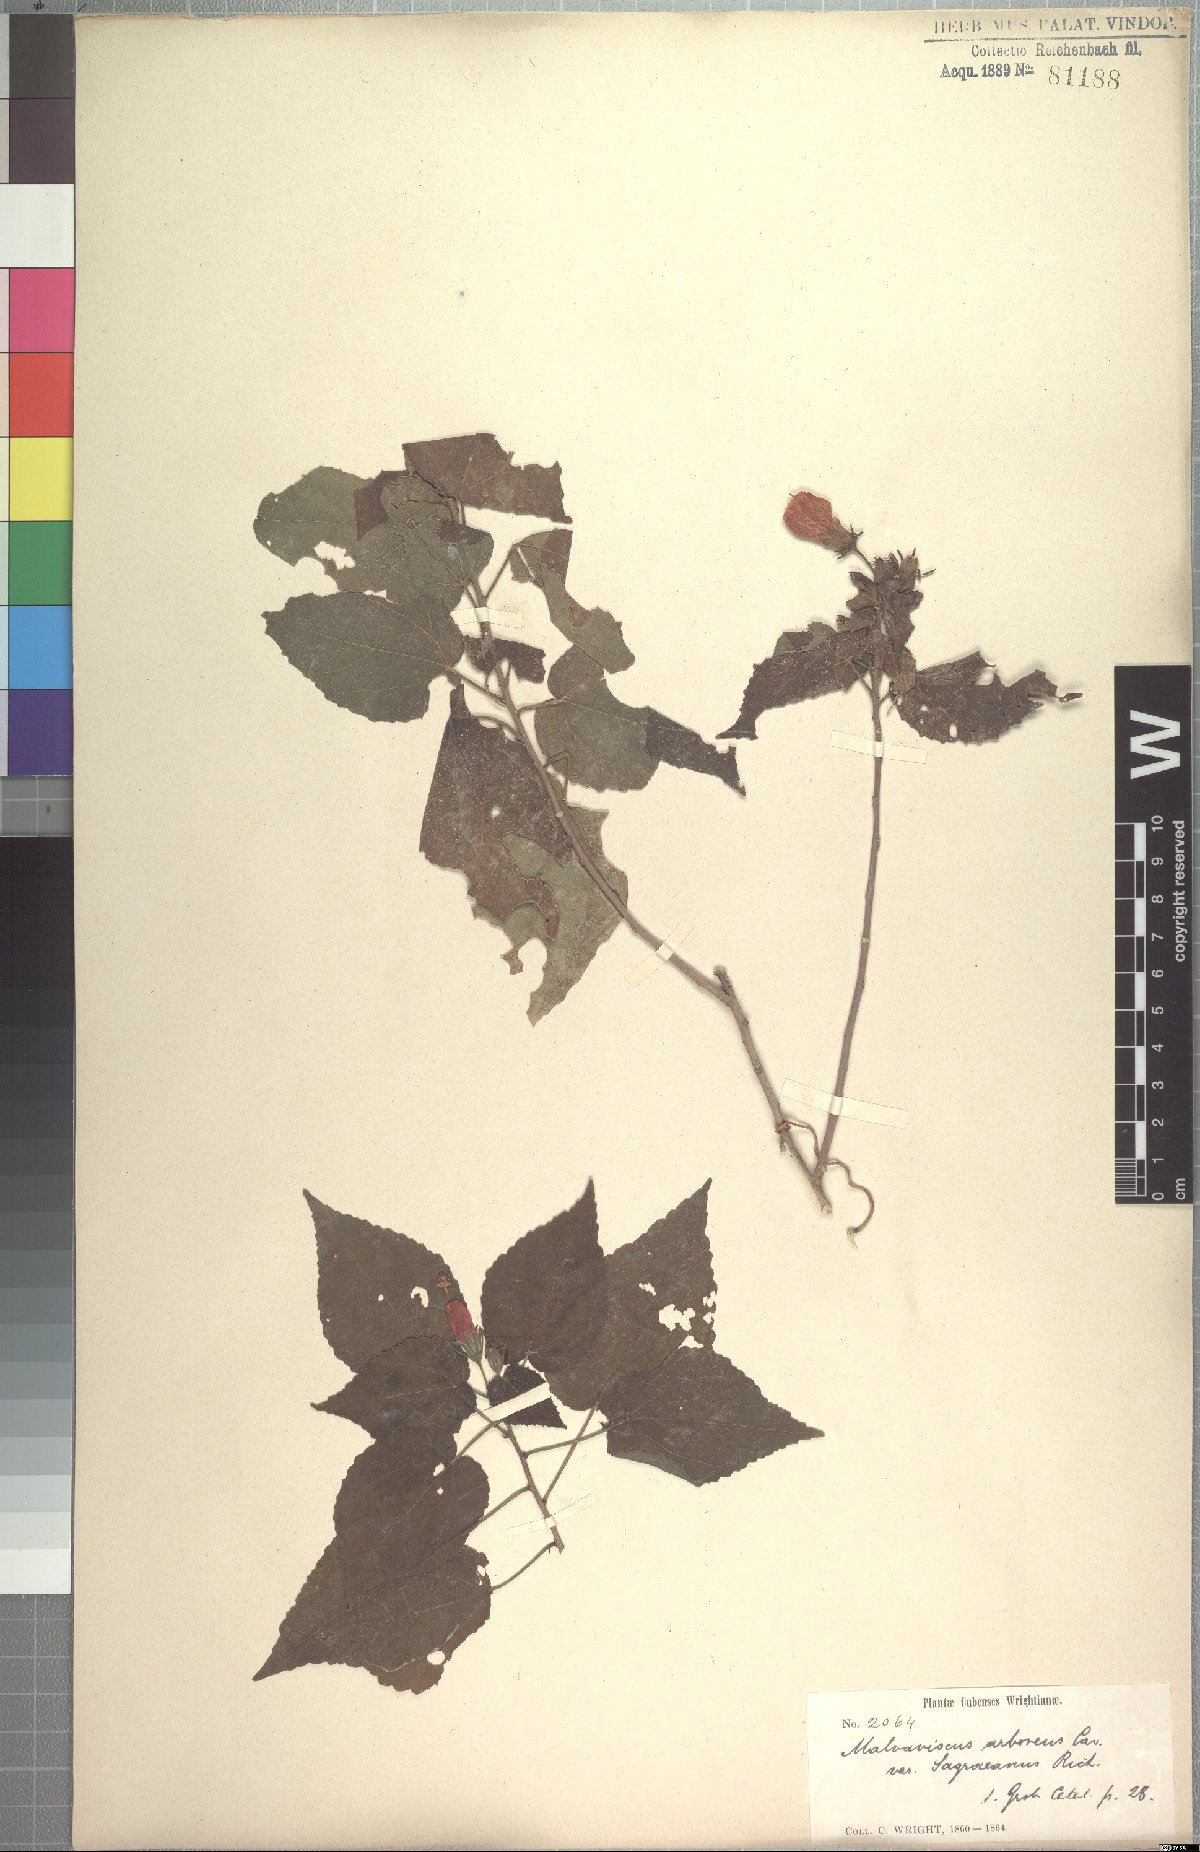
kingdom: Plantae
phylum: Tracheophyta
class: Magnoliopsida
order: Malvales
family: Malvaceae
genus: Malvaviscus
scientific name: Malvaviscus arboreus
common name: Wax mallow
